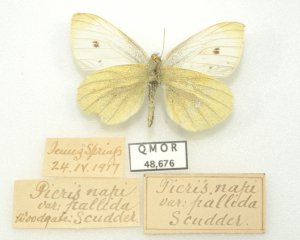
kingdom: Animalia
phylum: Arthropoda
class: Insecta
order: Lepidoptera
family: Pieridae
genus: Pieris
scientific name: Pieris rapae
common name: Cabbage White
